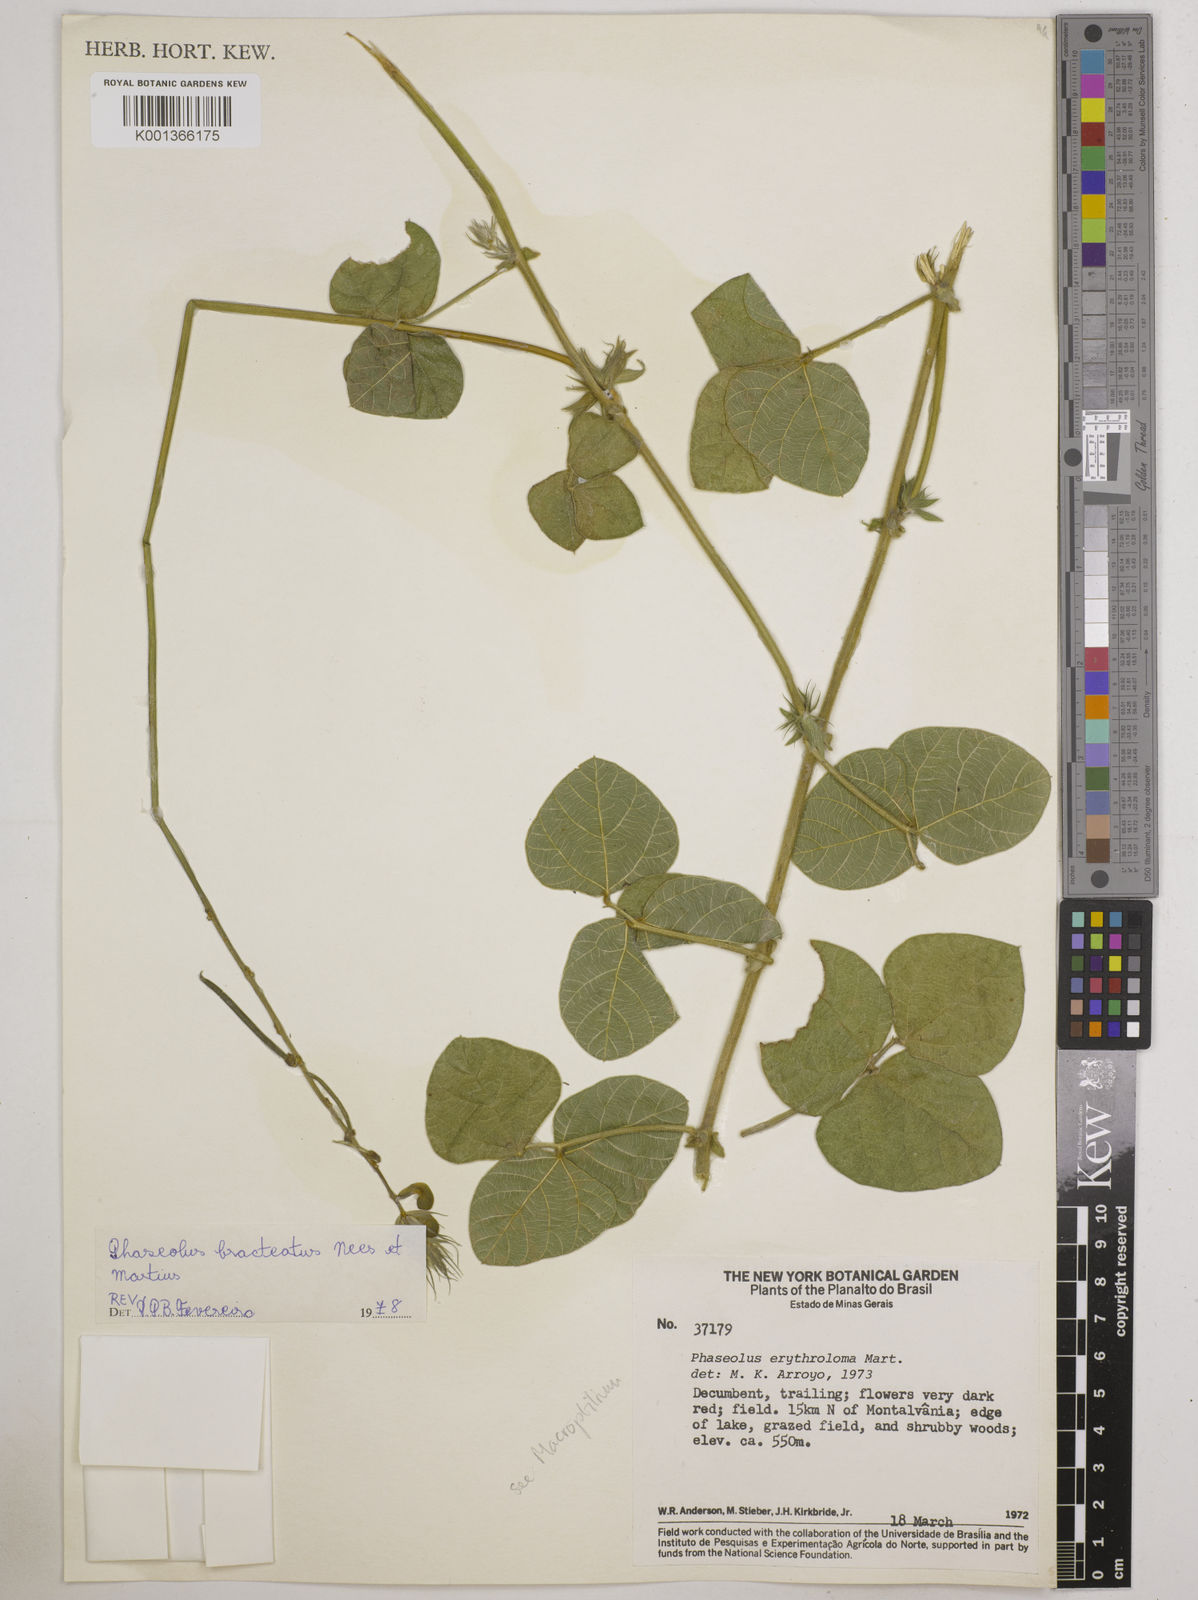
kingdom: Plantae
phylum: Tracheophyta
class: Magnoliopsida
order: Fabales
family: Fabaceae
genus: Macroptilium
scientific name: Macroptilium bracteatum
